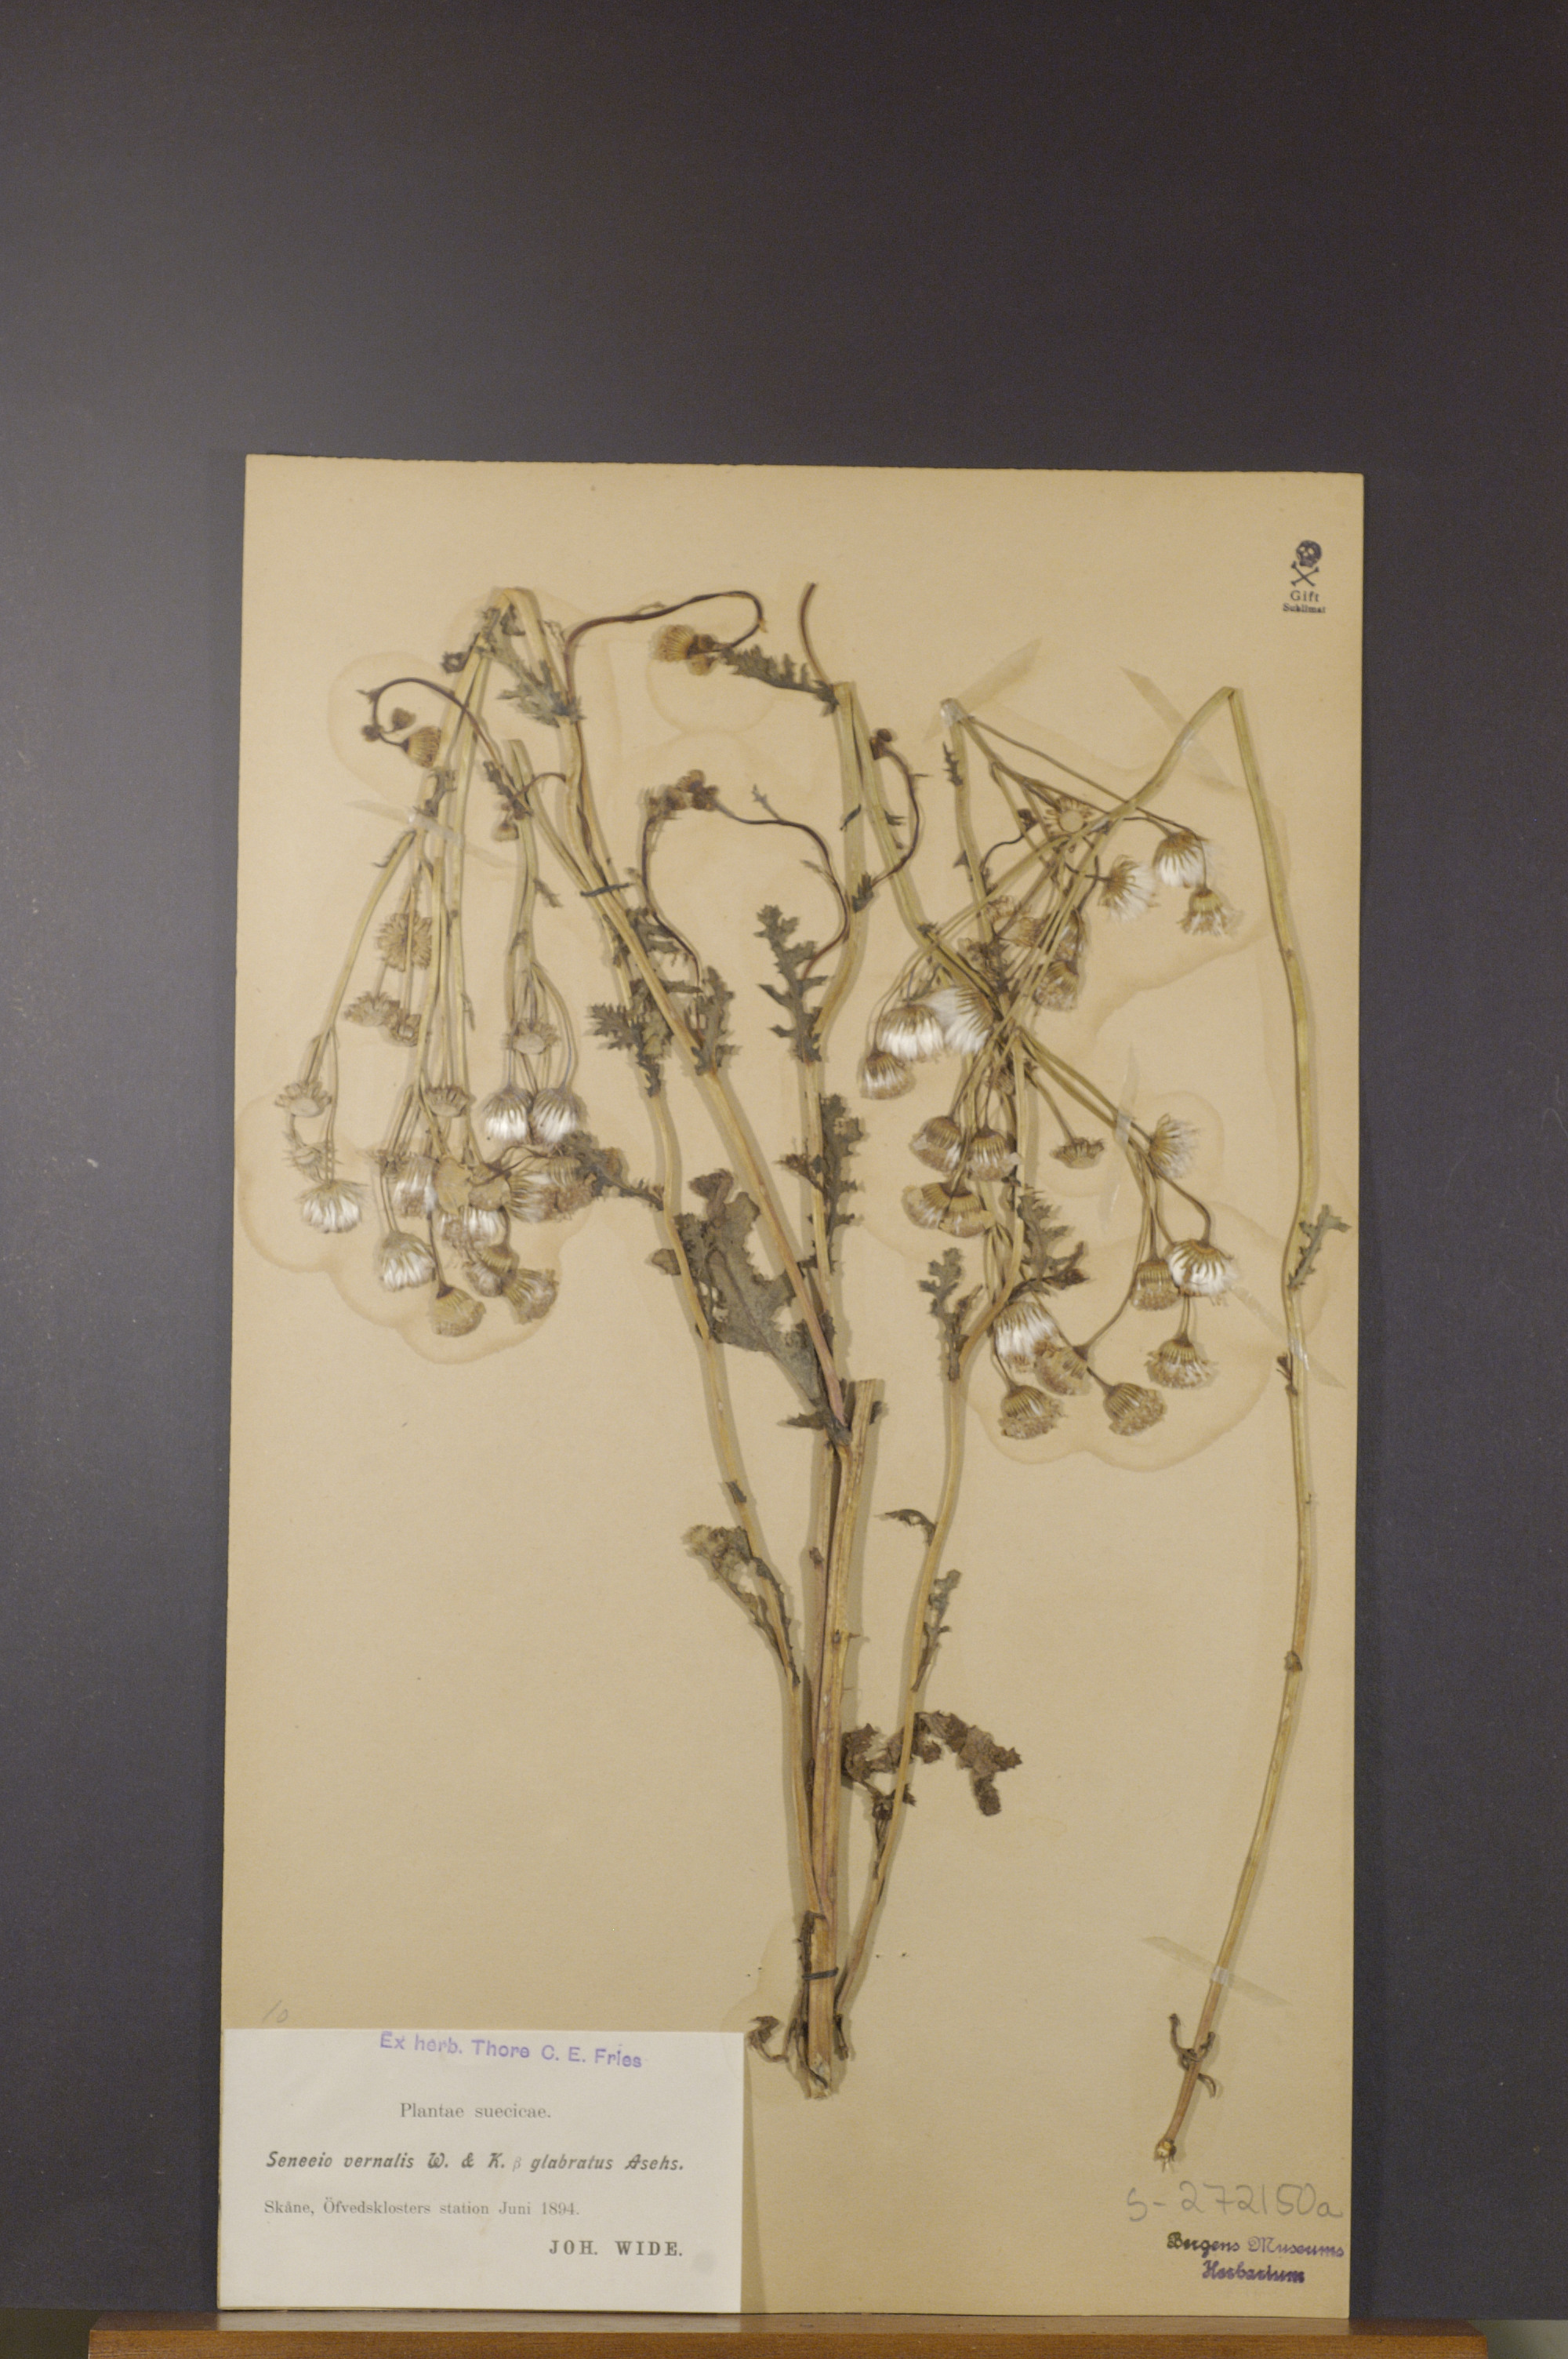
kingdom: Plantae
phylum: Tracheophyta
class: Magnoliopsida
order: Asterales
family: Asteraceae
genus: Senecio
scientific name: Senecio vernalis
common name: Eastern groundsel
